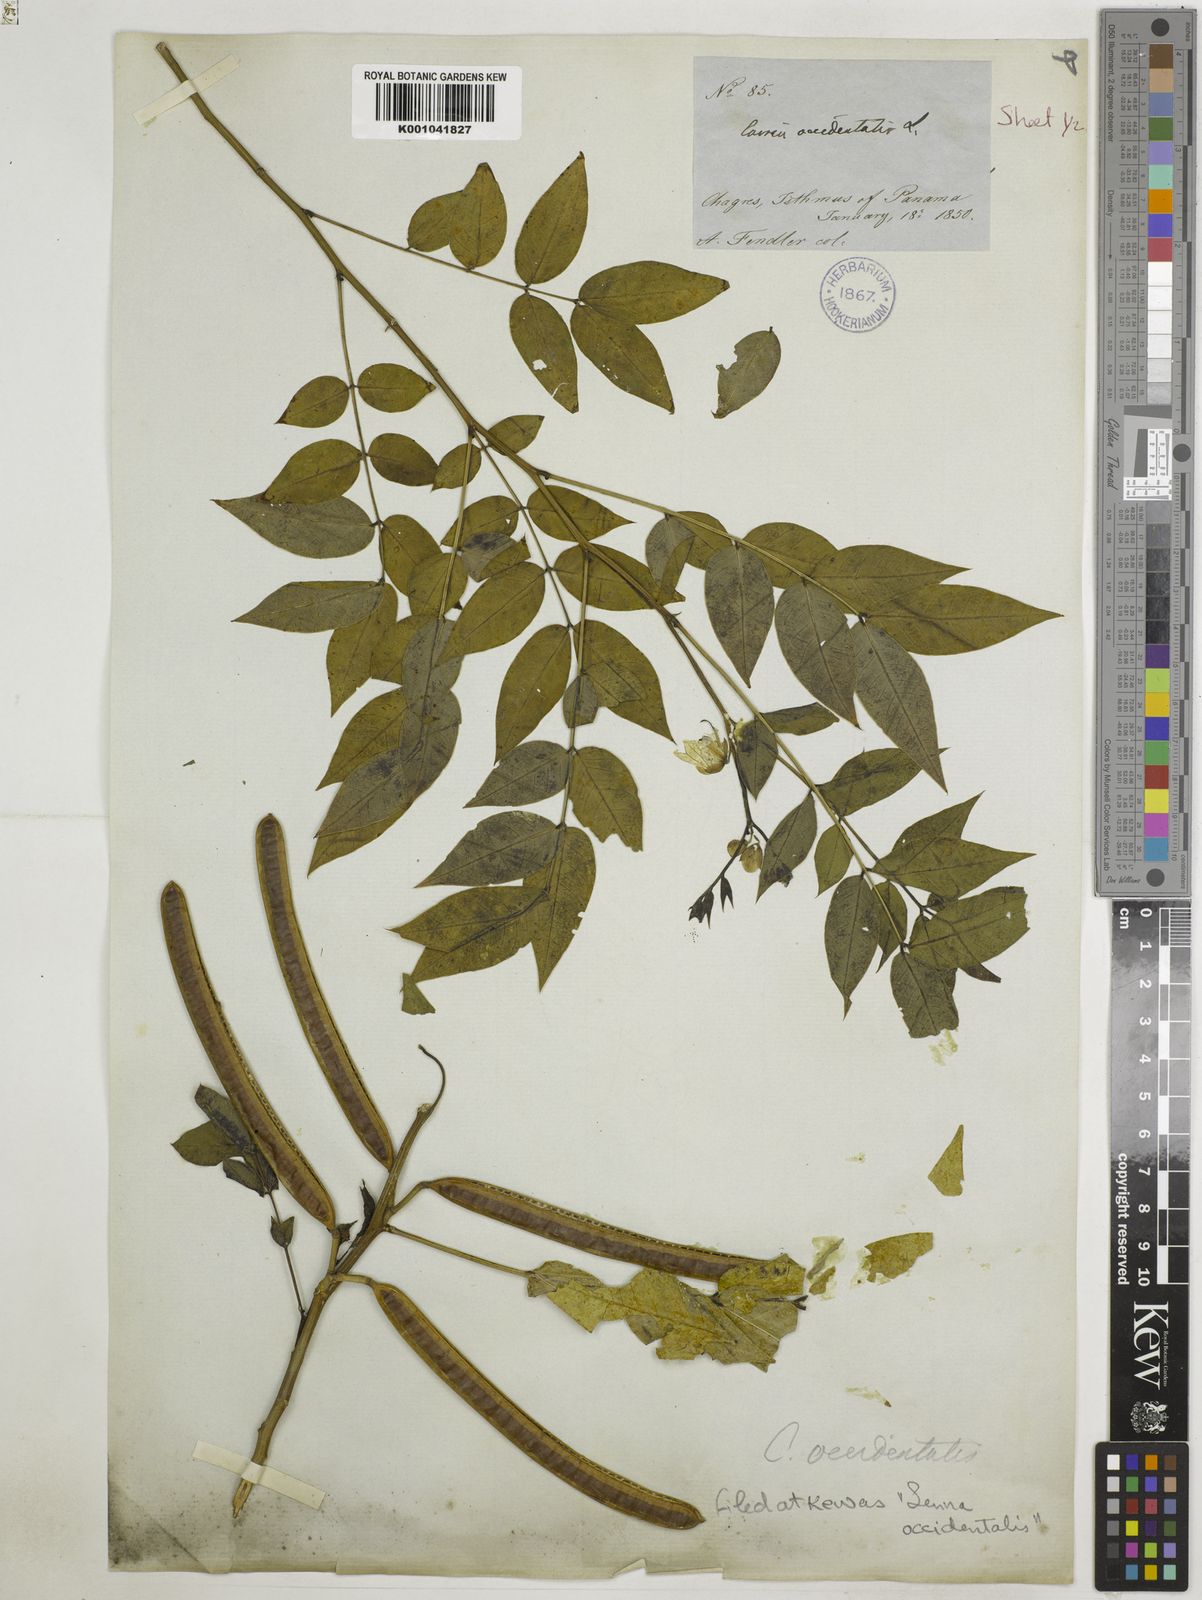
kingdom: Plantae
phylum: Tracheophyta
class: Magnoliopsida
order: Fabales
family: Fabaceae
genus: Senna
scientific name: Senna occidentalis
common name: Septicweed
